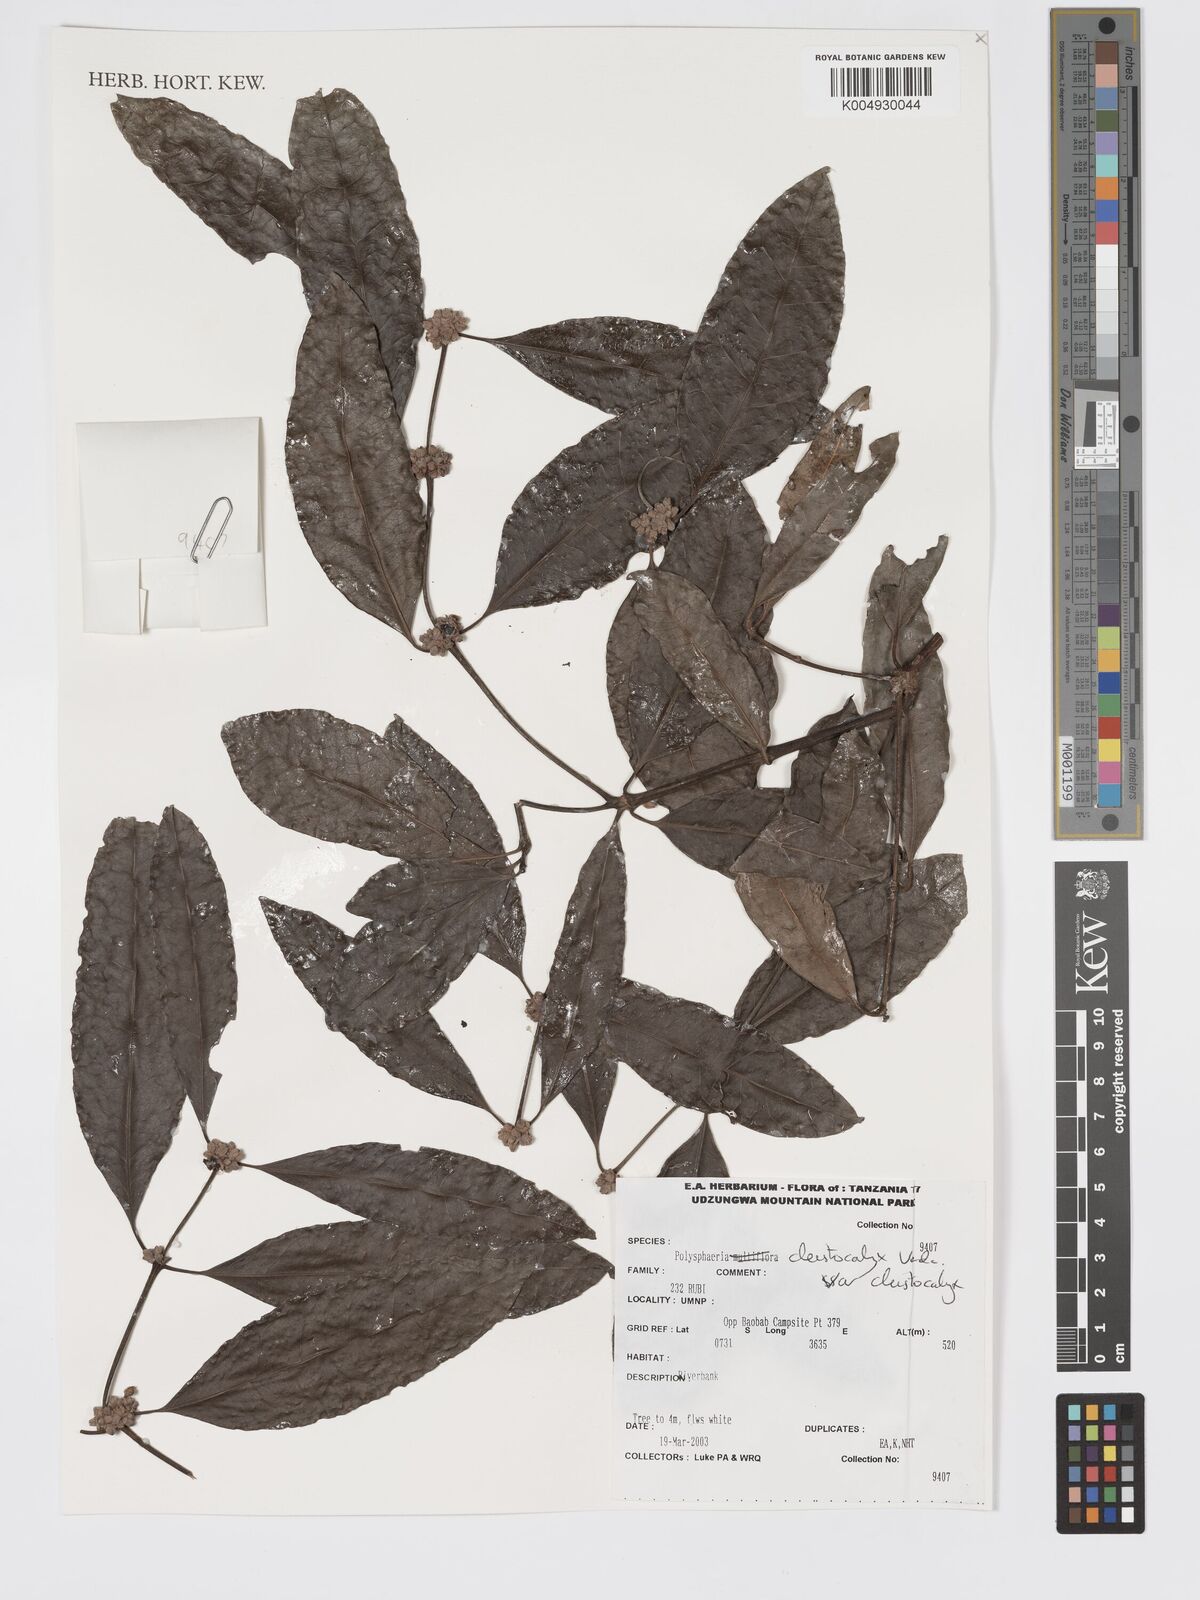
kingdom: Plantae
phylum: Tracheophyta
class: Magnoliopsida
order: Gentianales
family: Rubiaceae
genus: Polysphaeria
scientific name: Polysphaeria cleistocalyx
